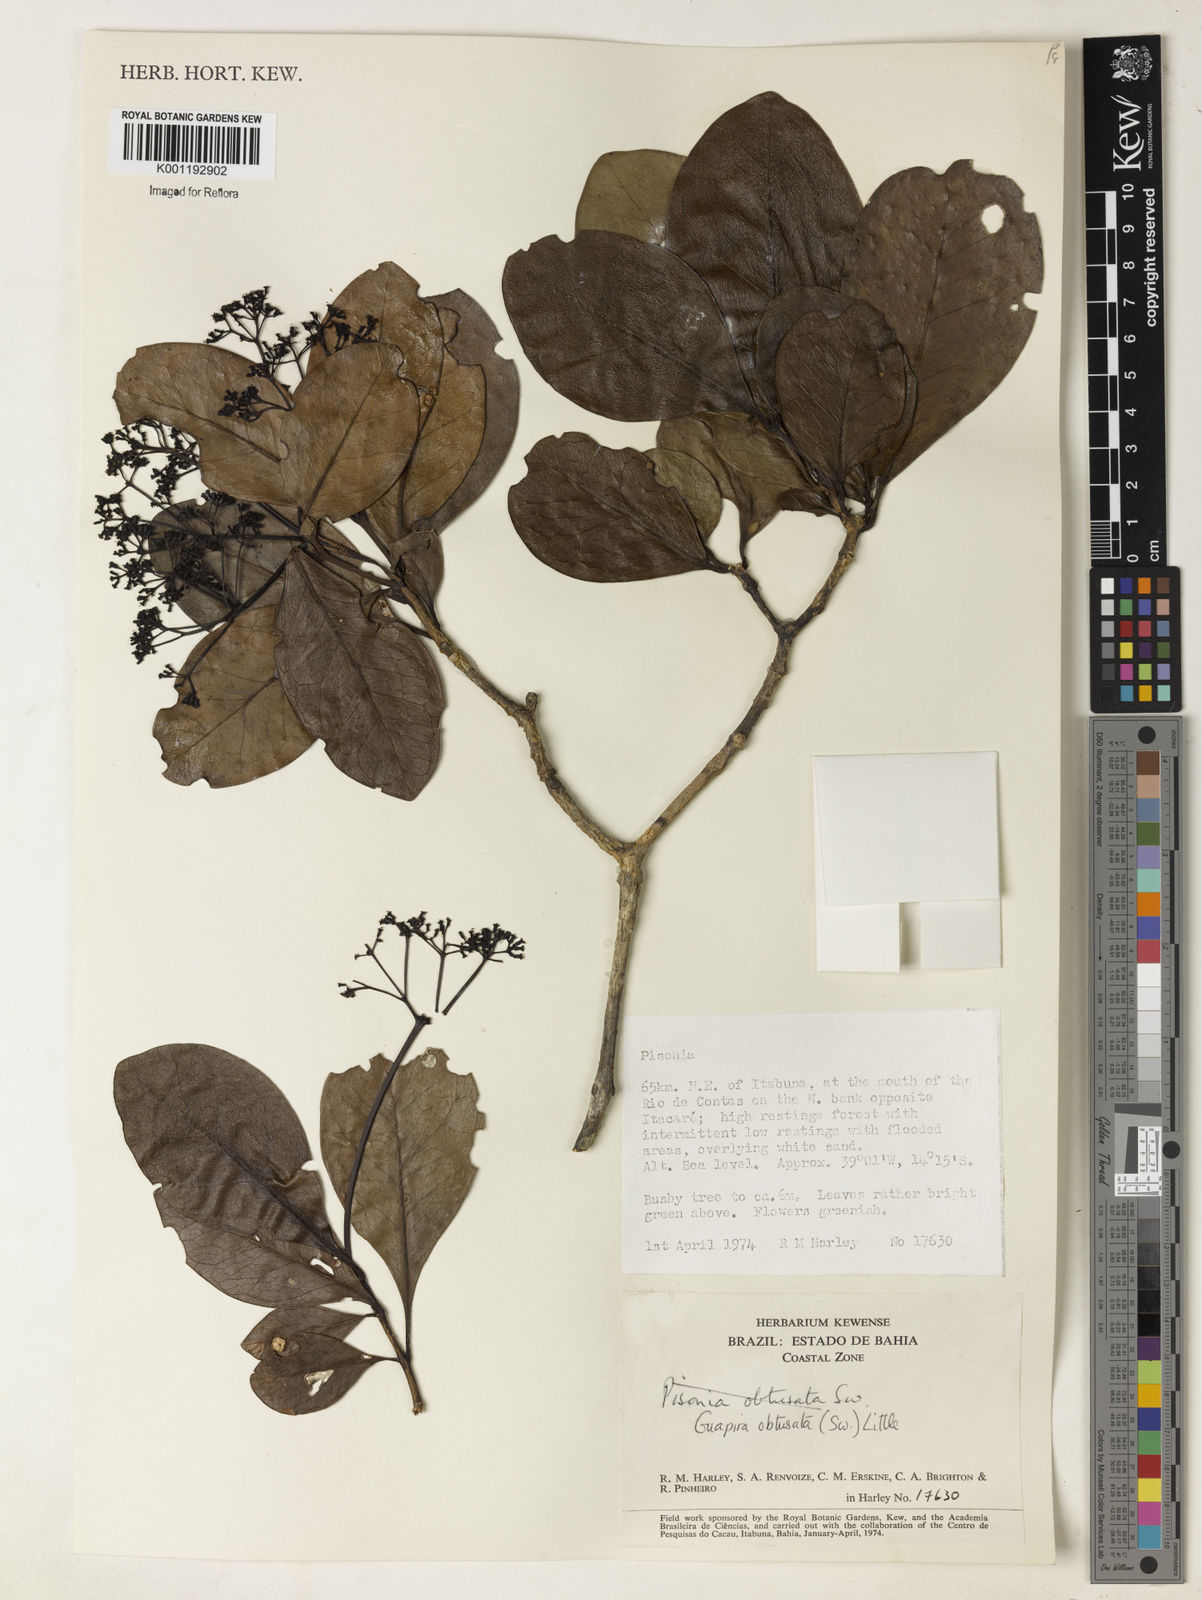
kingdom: Plantae
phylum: Tracheophyta
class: Magnoliopsida
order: Caryophyllales
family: Nyctaginaceae
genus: Guapira
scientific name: Guapira obtusata
